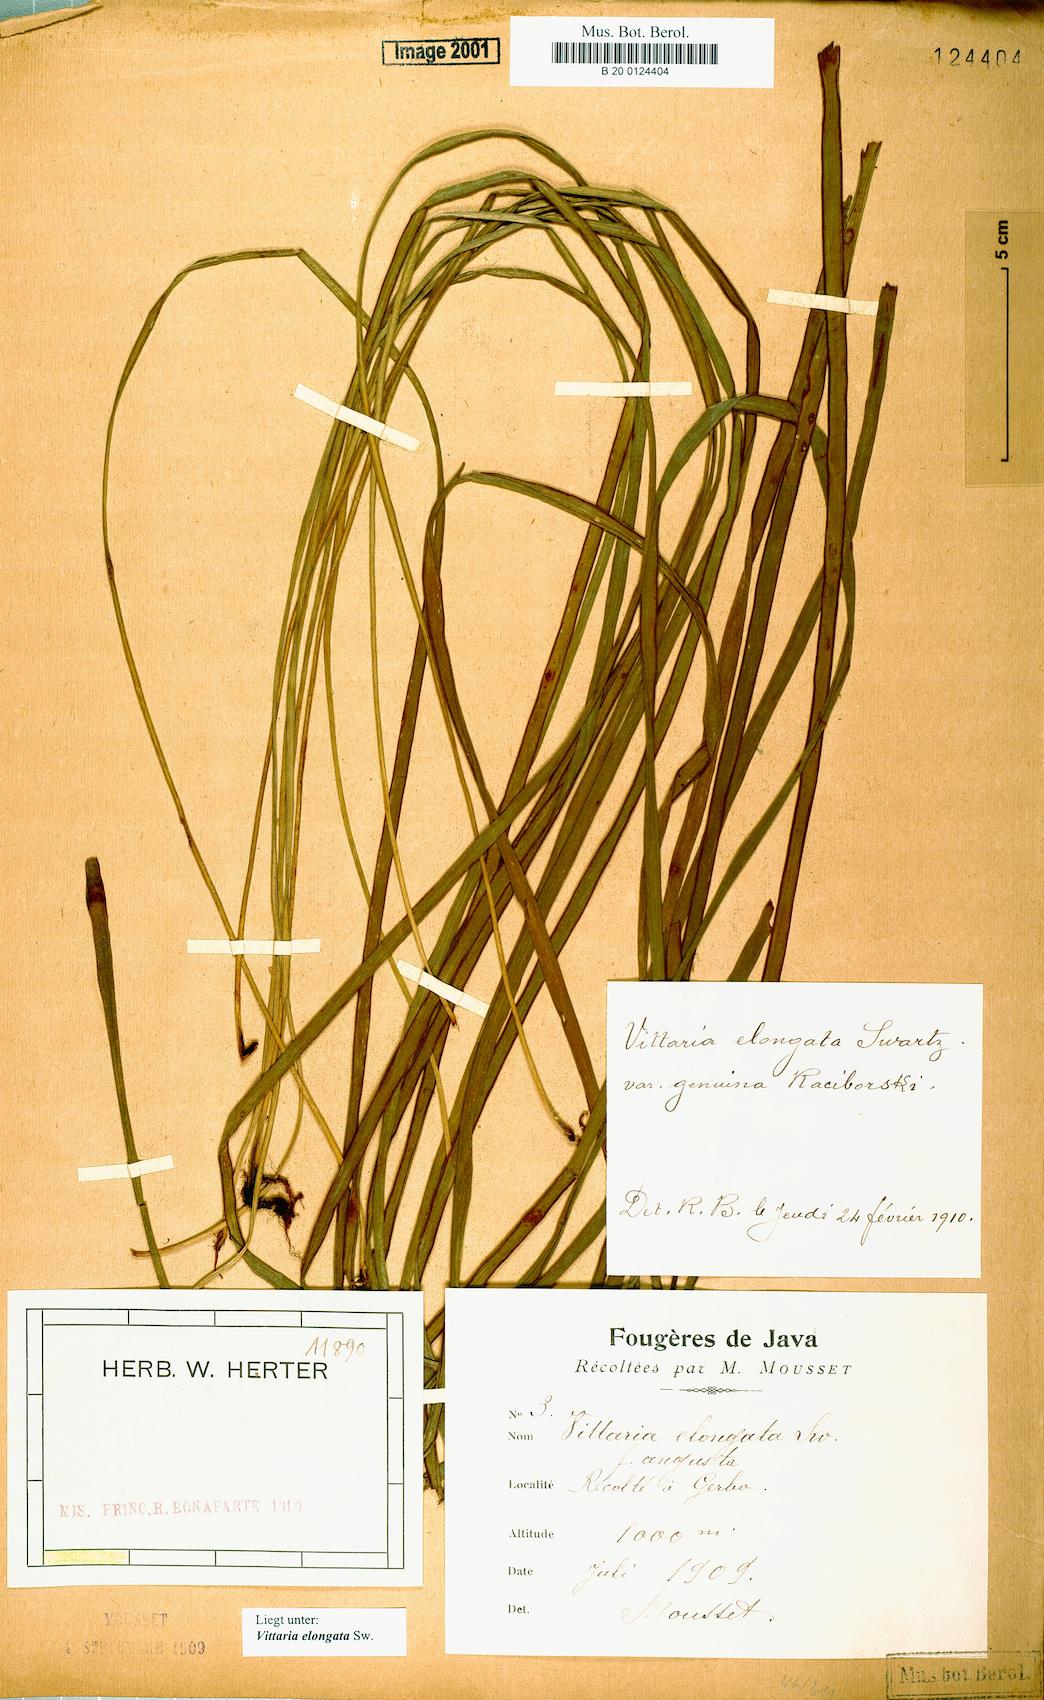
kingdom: Plantae
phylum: Tracheophyta
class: Polypodiopsida
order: Polypodiales
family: Pteridaceae
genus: Haplopteris
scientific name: Haplopteris elongata
